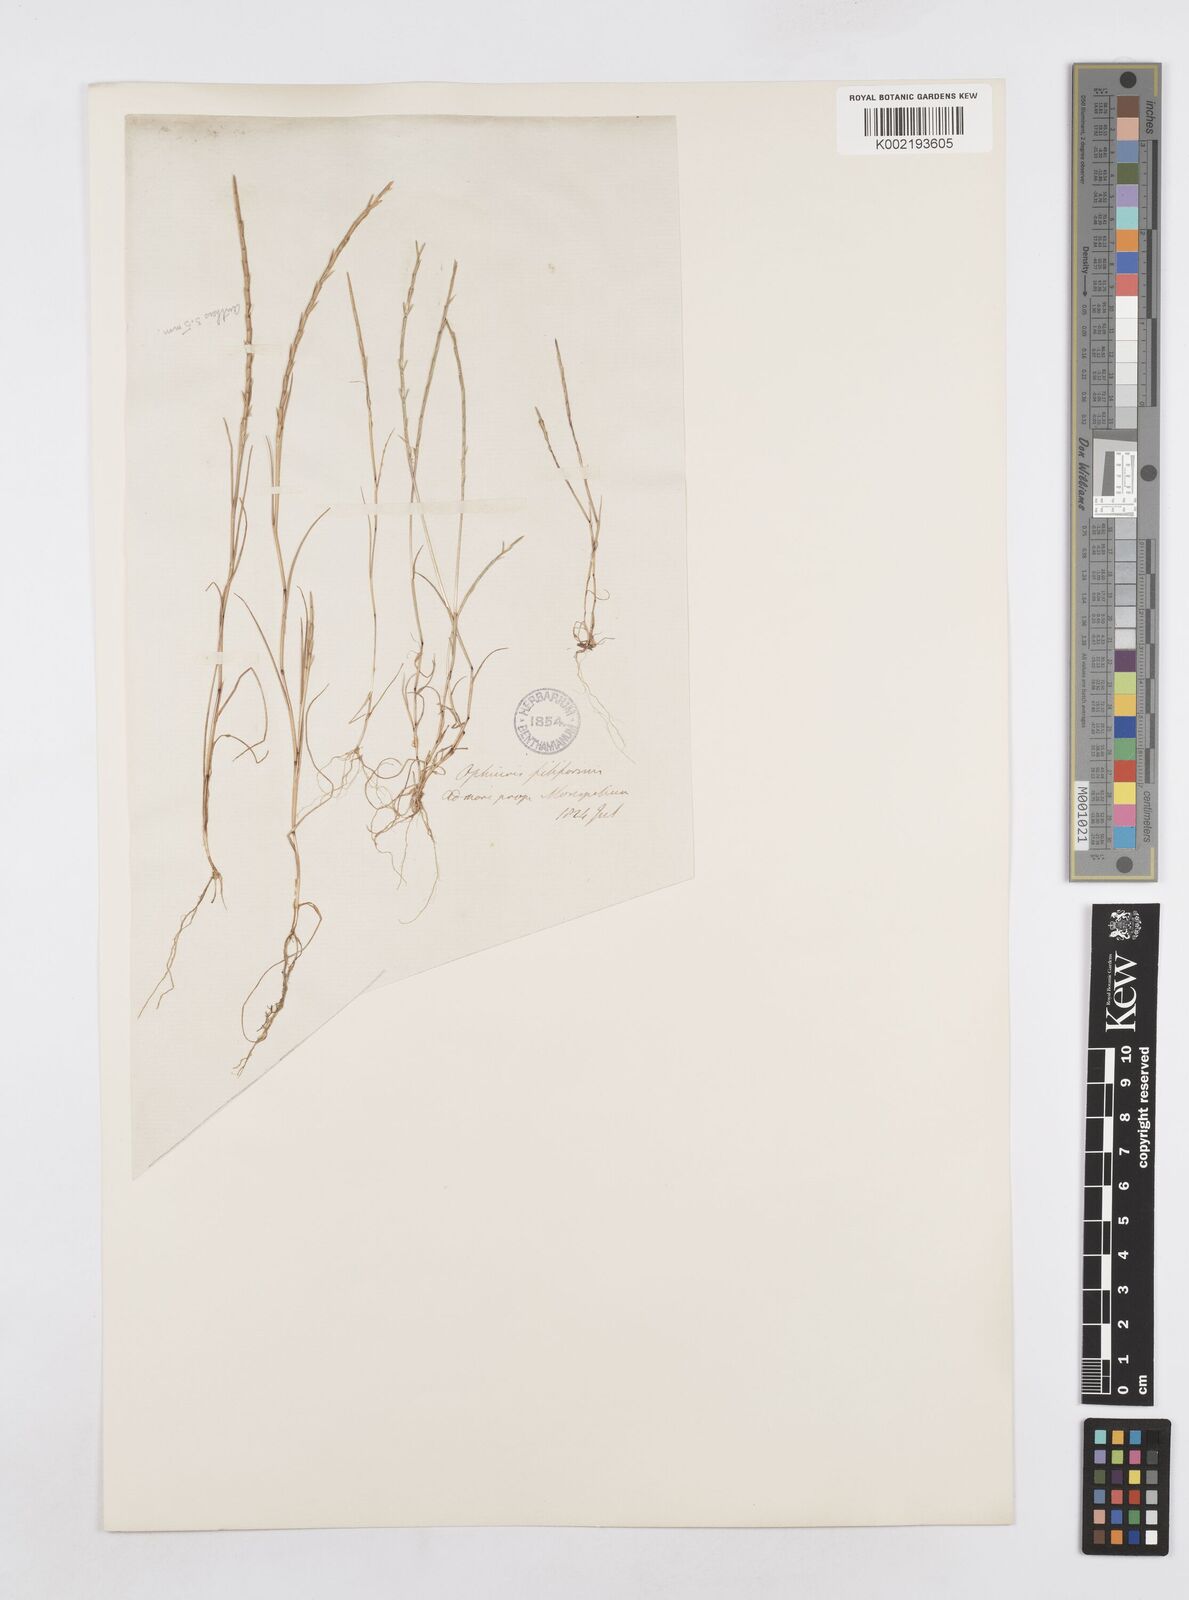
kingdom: Plantae
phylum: Tracheophyta
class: Liliopsida
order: Poales
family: Poaceae
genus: Parapholis
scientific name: Parapholis filiformis
